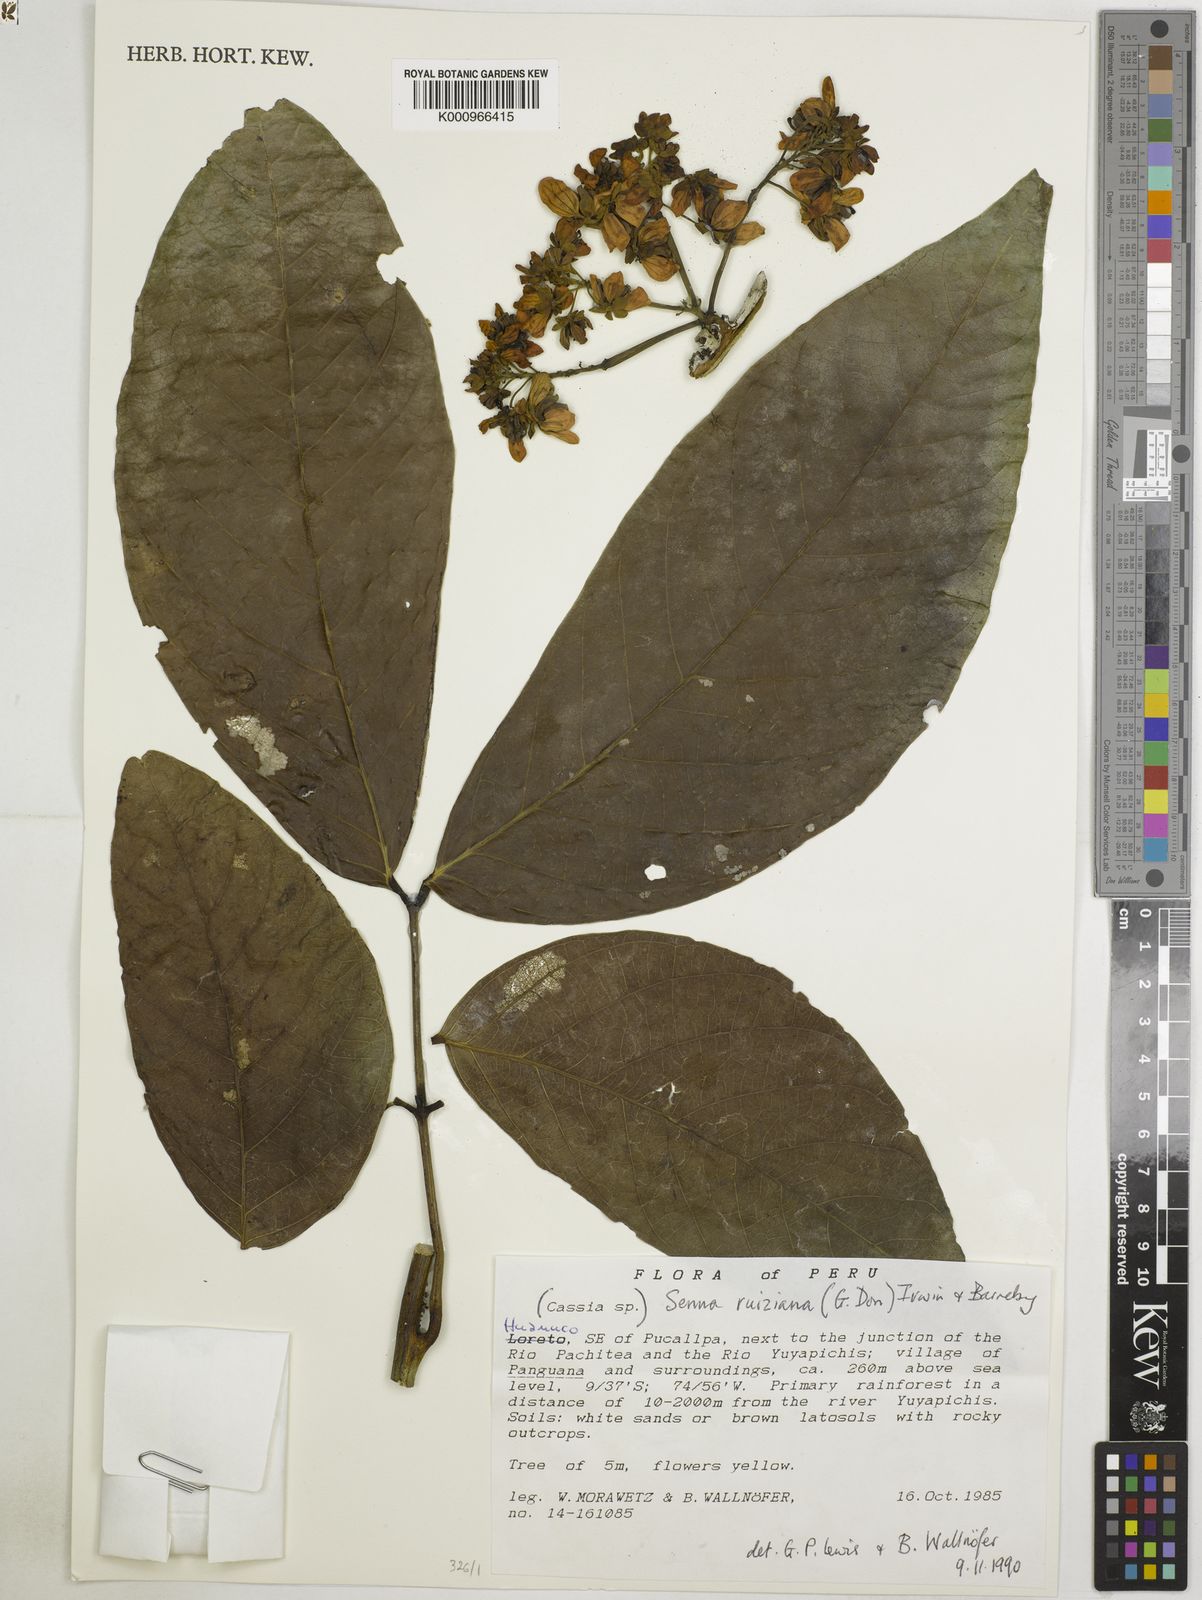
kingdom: Plantae
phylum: Tracheophyta
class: Magnoliopsida
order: Fabales
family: Fabaceae
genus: Senna
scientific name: Senna ruiziana
